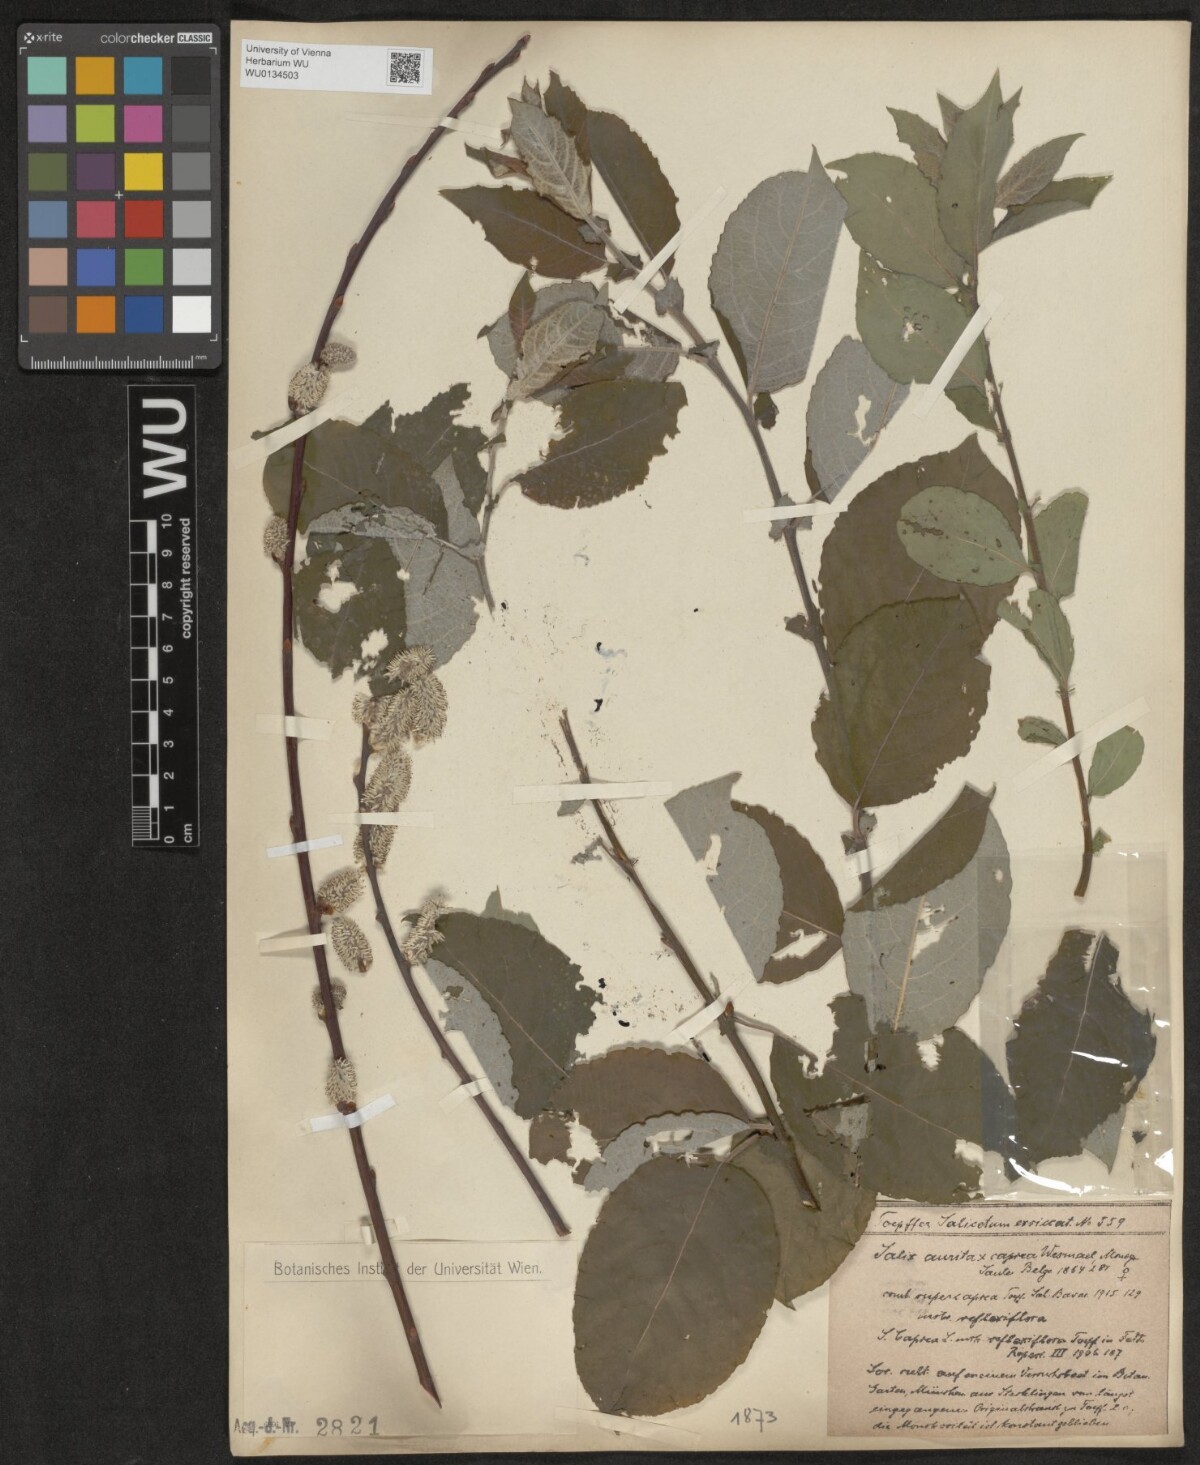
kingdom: Plantae
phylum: Tracheophyta
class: Magnoliopsida
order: Malpighiales
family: Salicaceae
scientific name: Salicaceae
